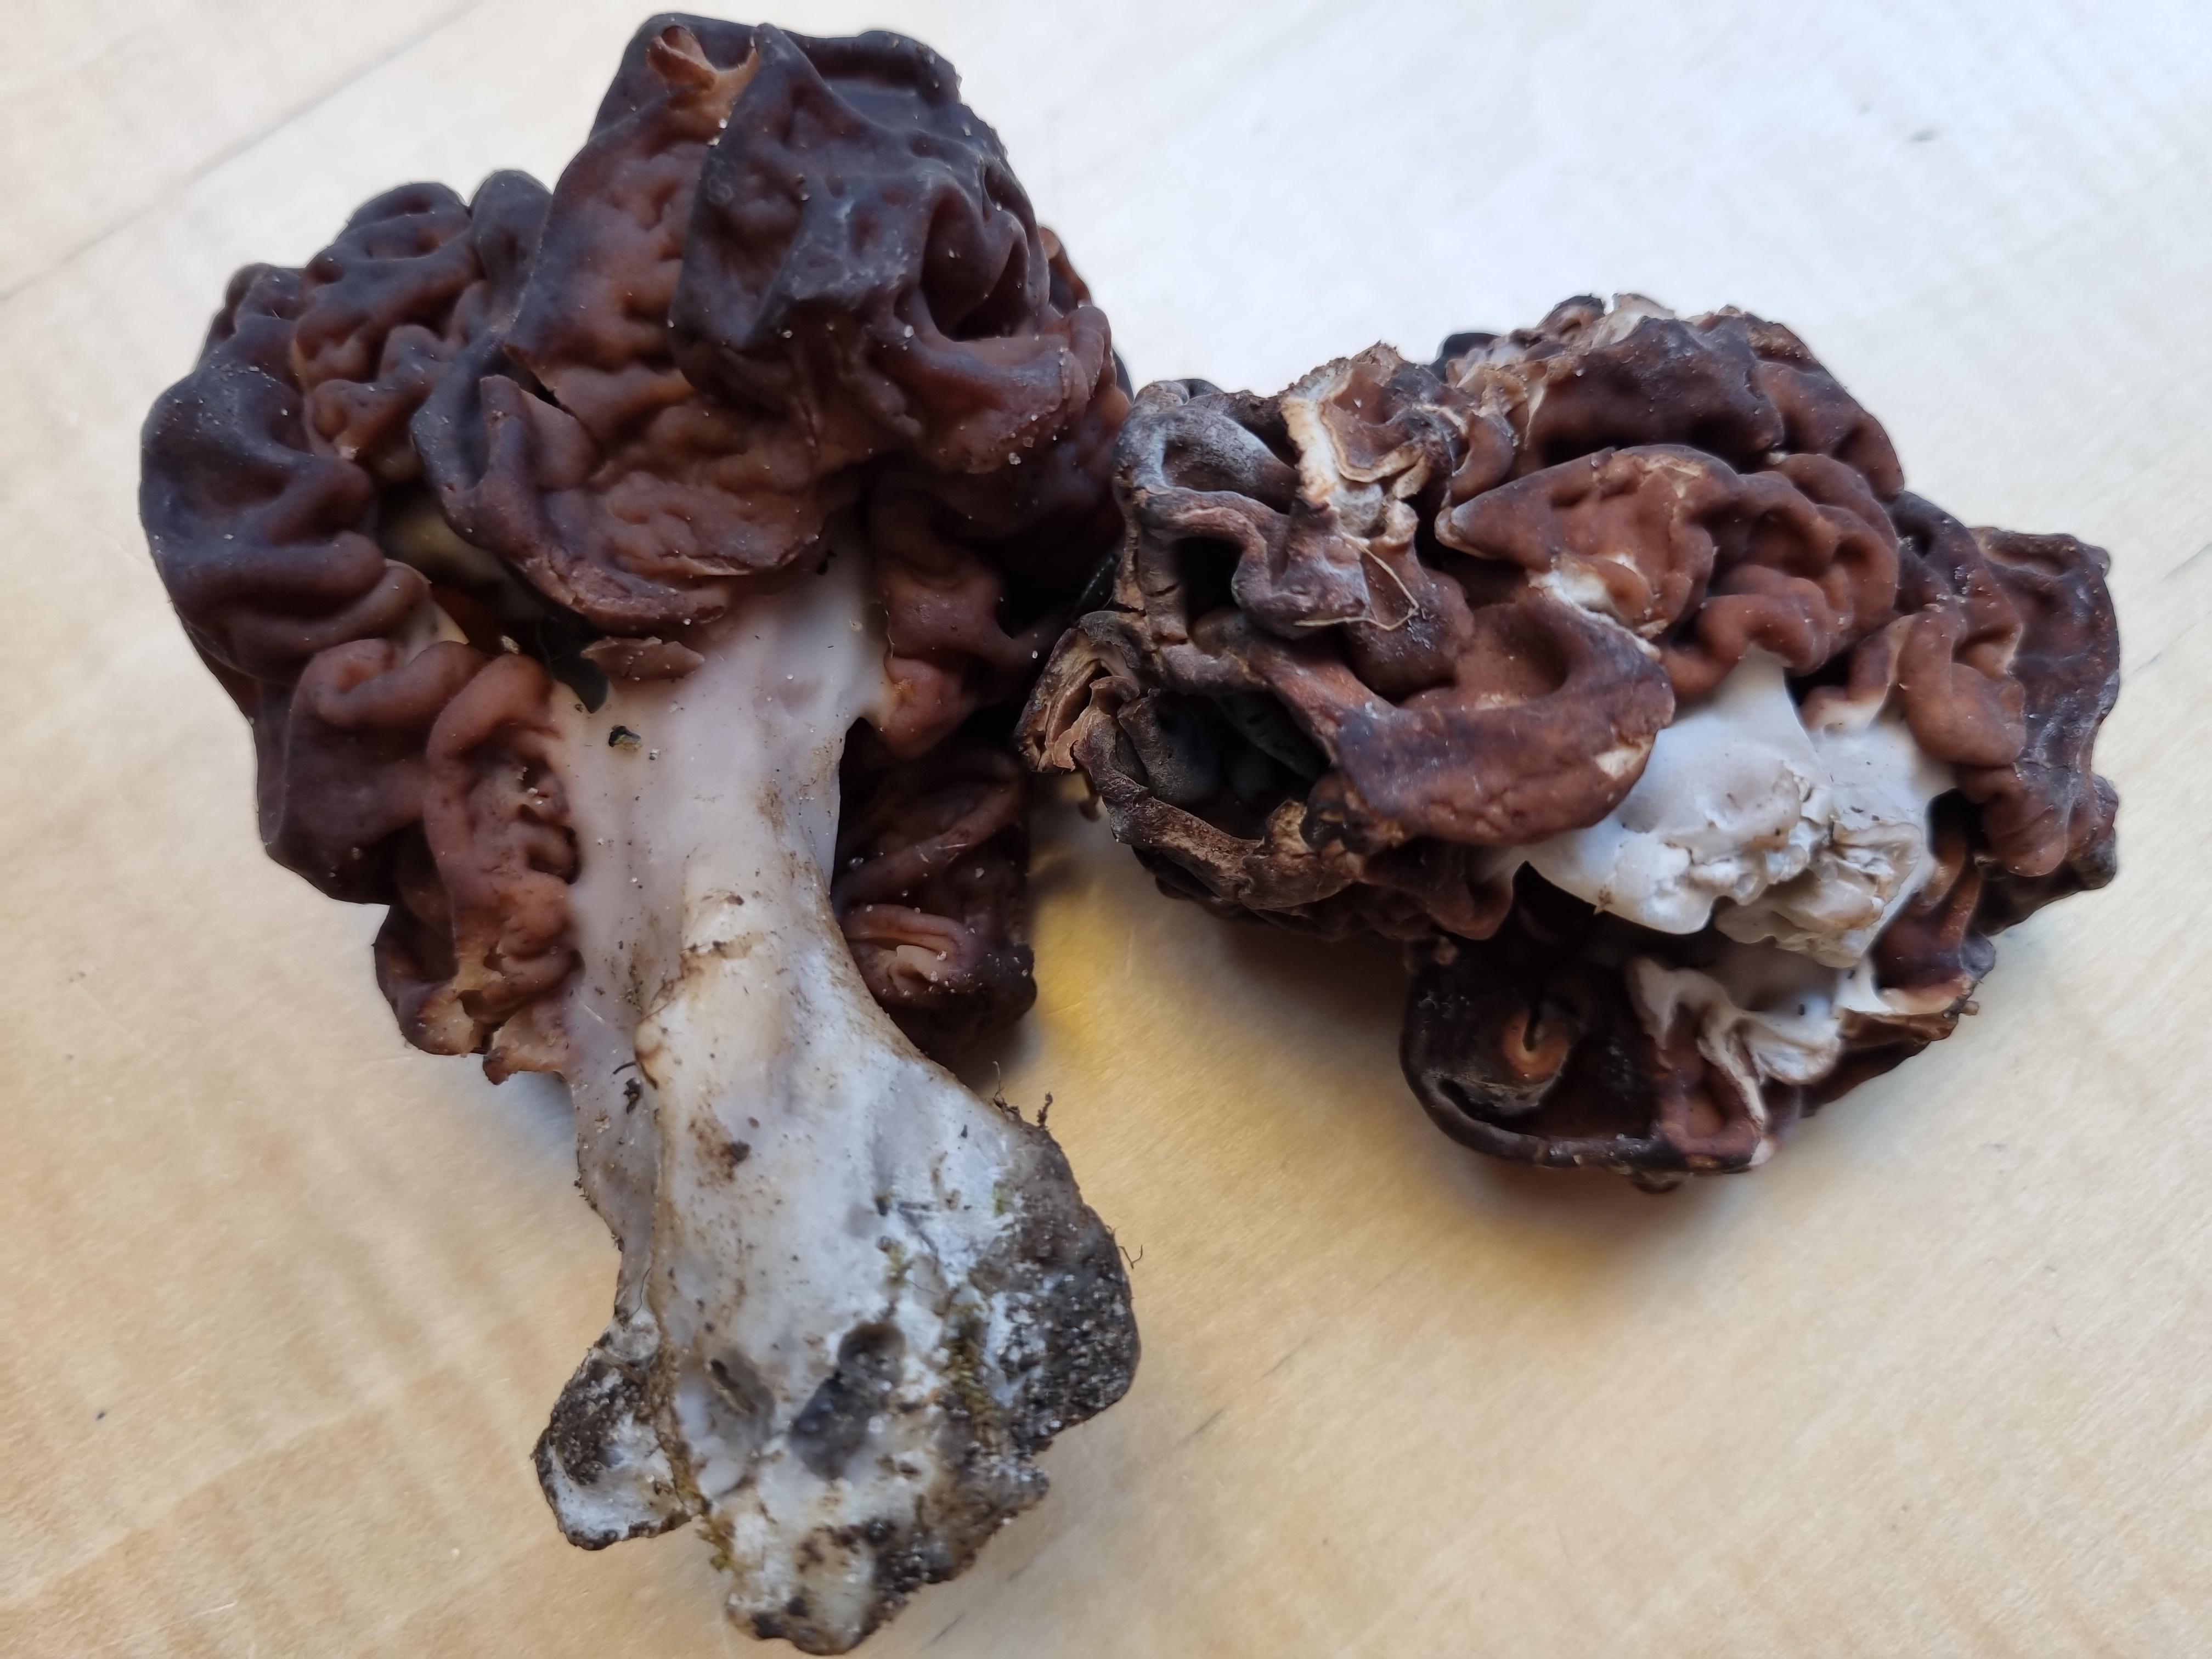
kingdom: Fungi
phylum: Ascomycota
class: Pezizomycetes
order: Pezizales
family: Discinaceae
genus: Gyromitra
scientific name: Gyromitra esculenta
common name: ægte stenmorkel
